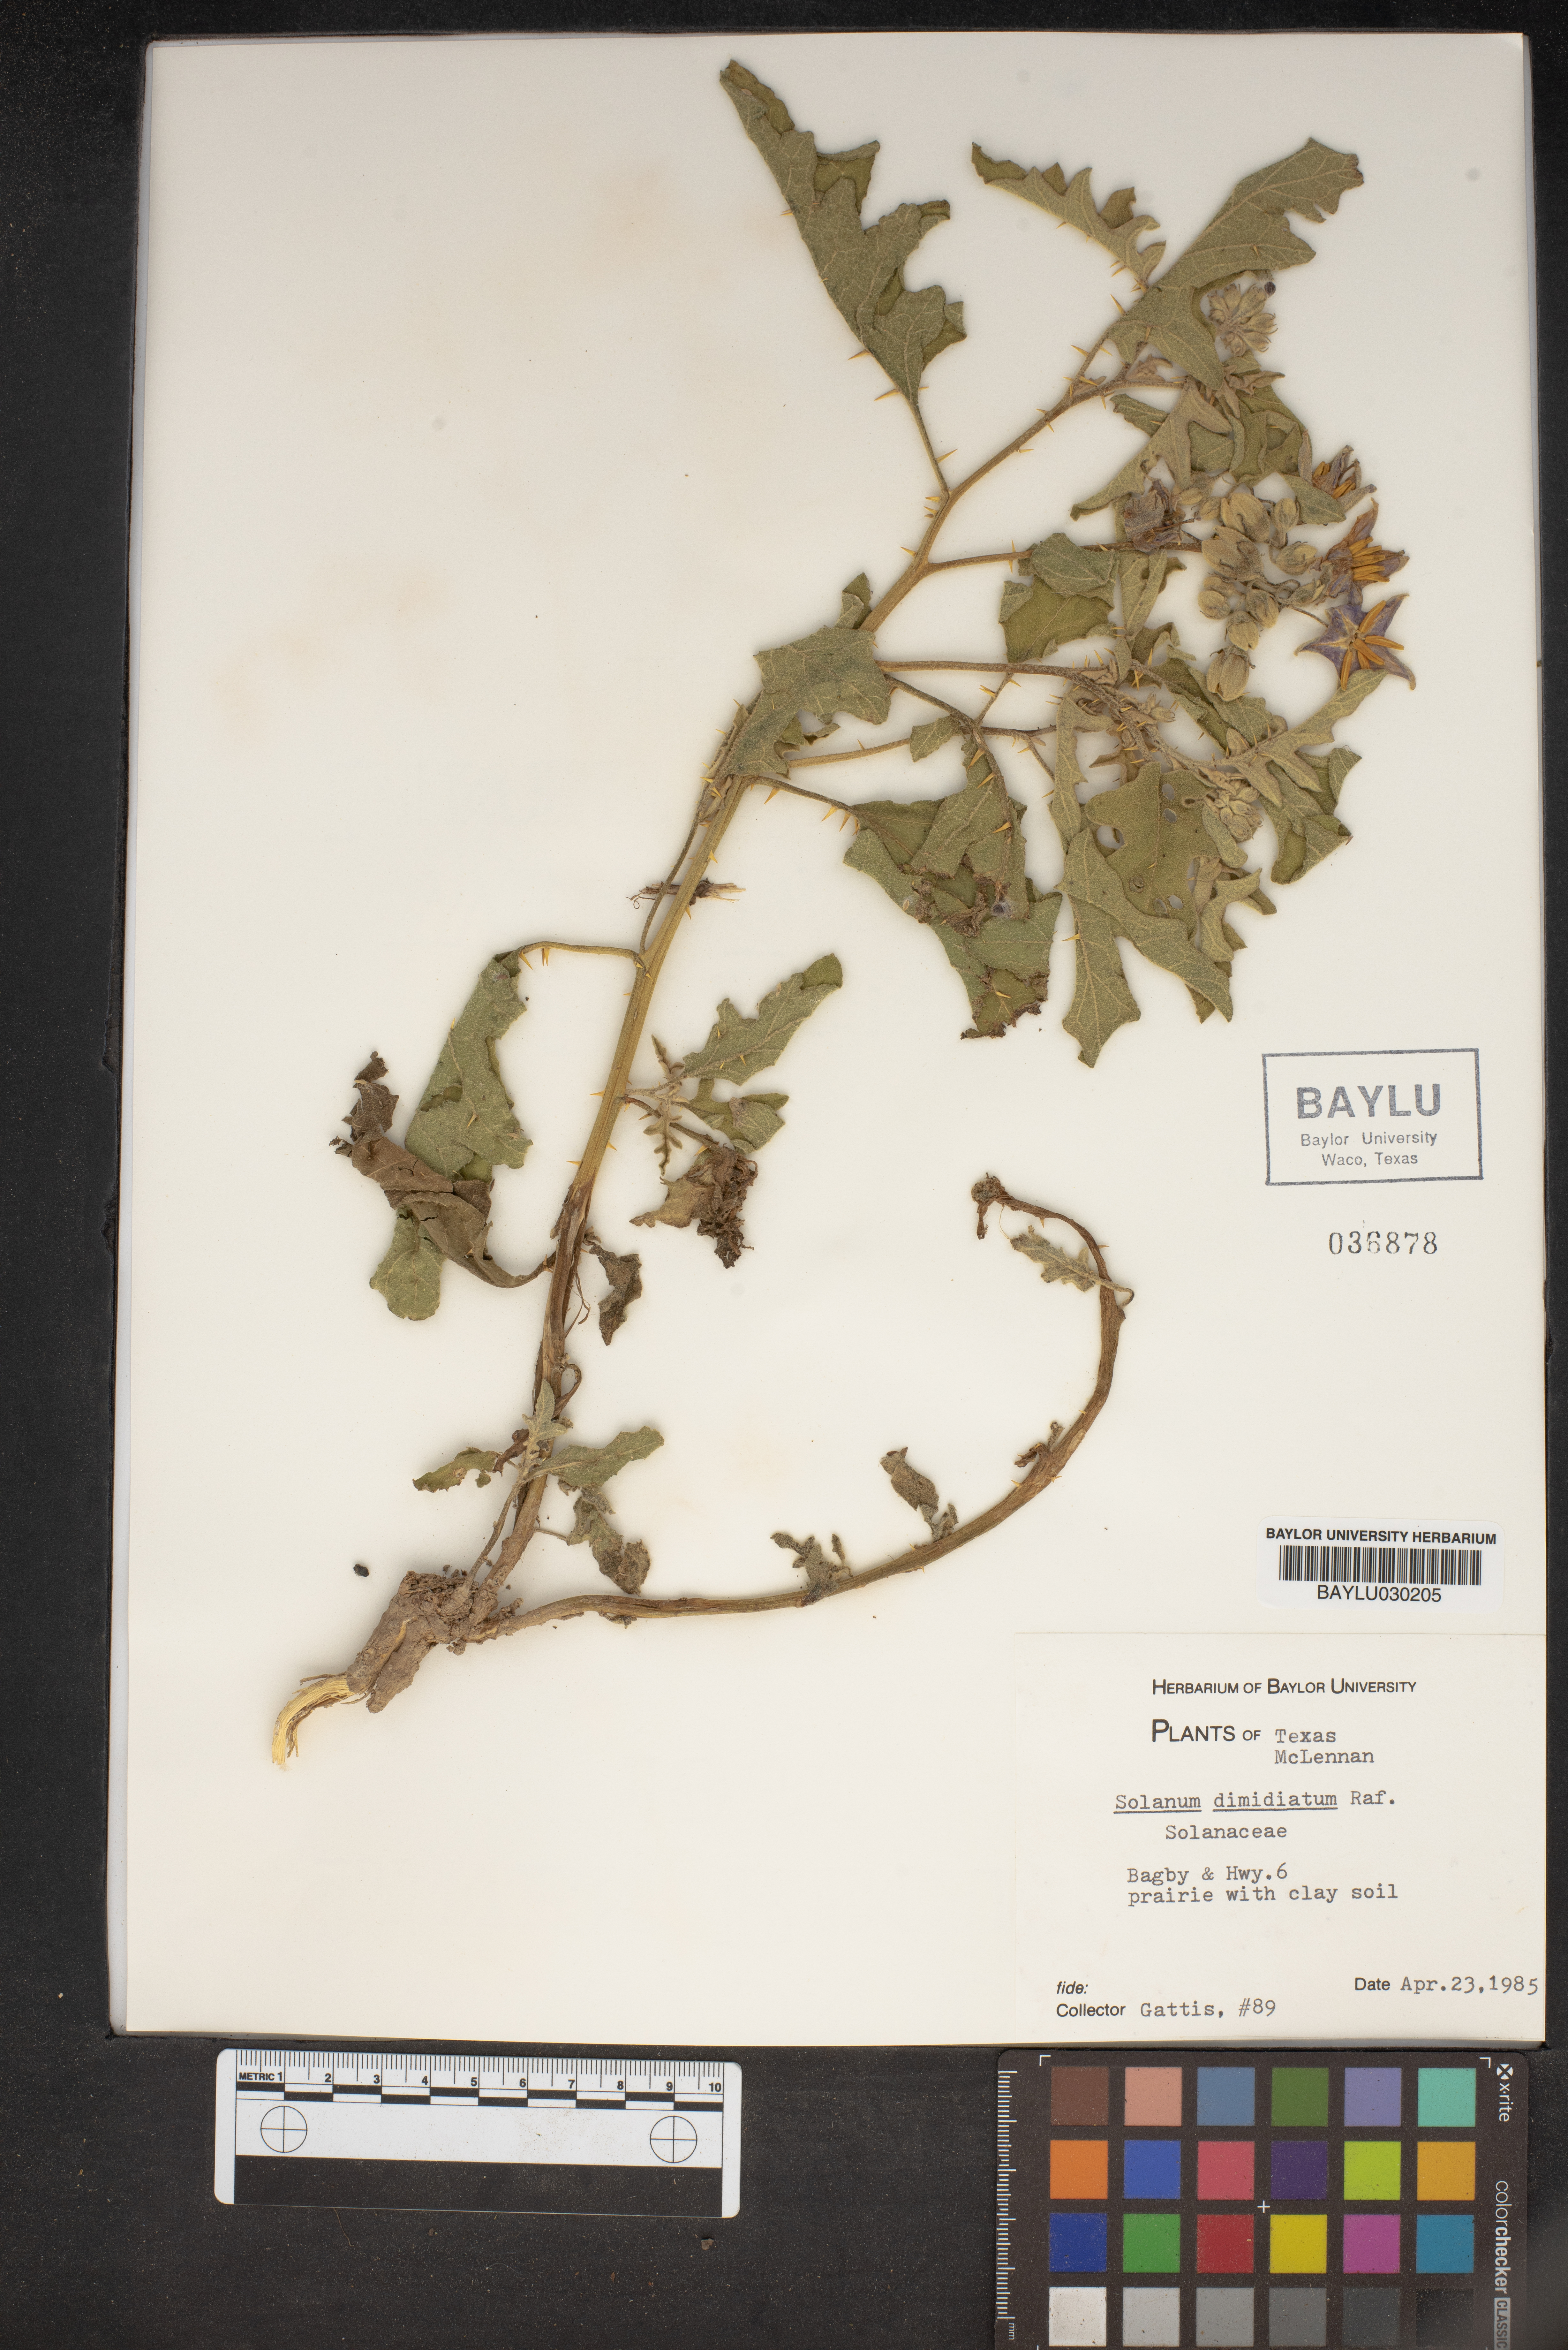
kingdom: Plantae
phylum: Tracheophyta
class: Magnoliopsida
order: Solanales
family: Solanaceae
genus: Solanum
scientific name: Solanum dimidiatum
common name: Carolina horse-nettle
